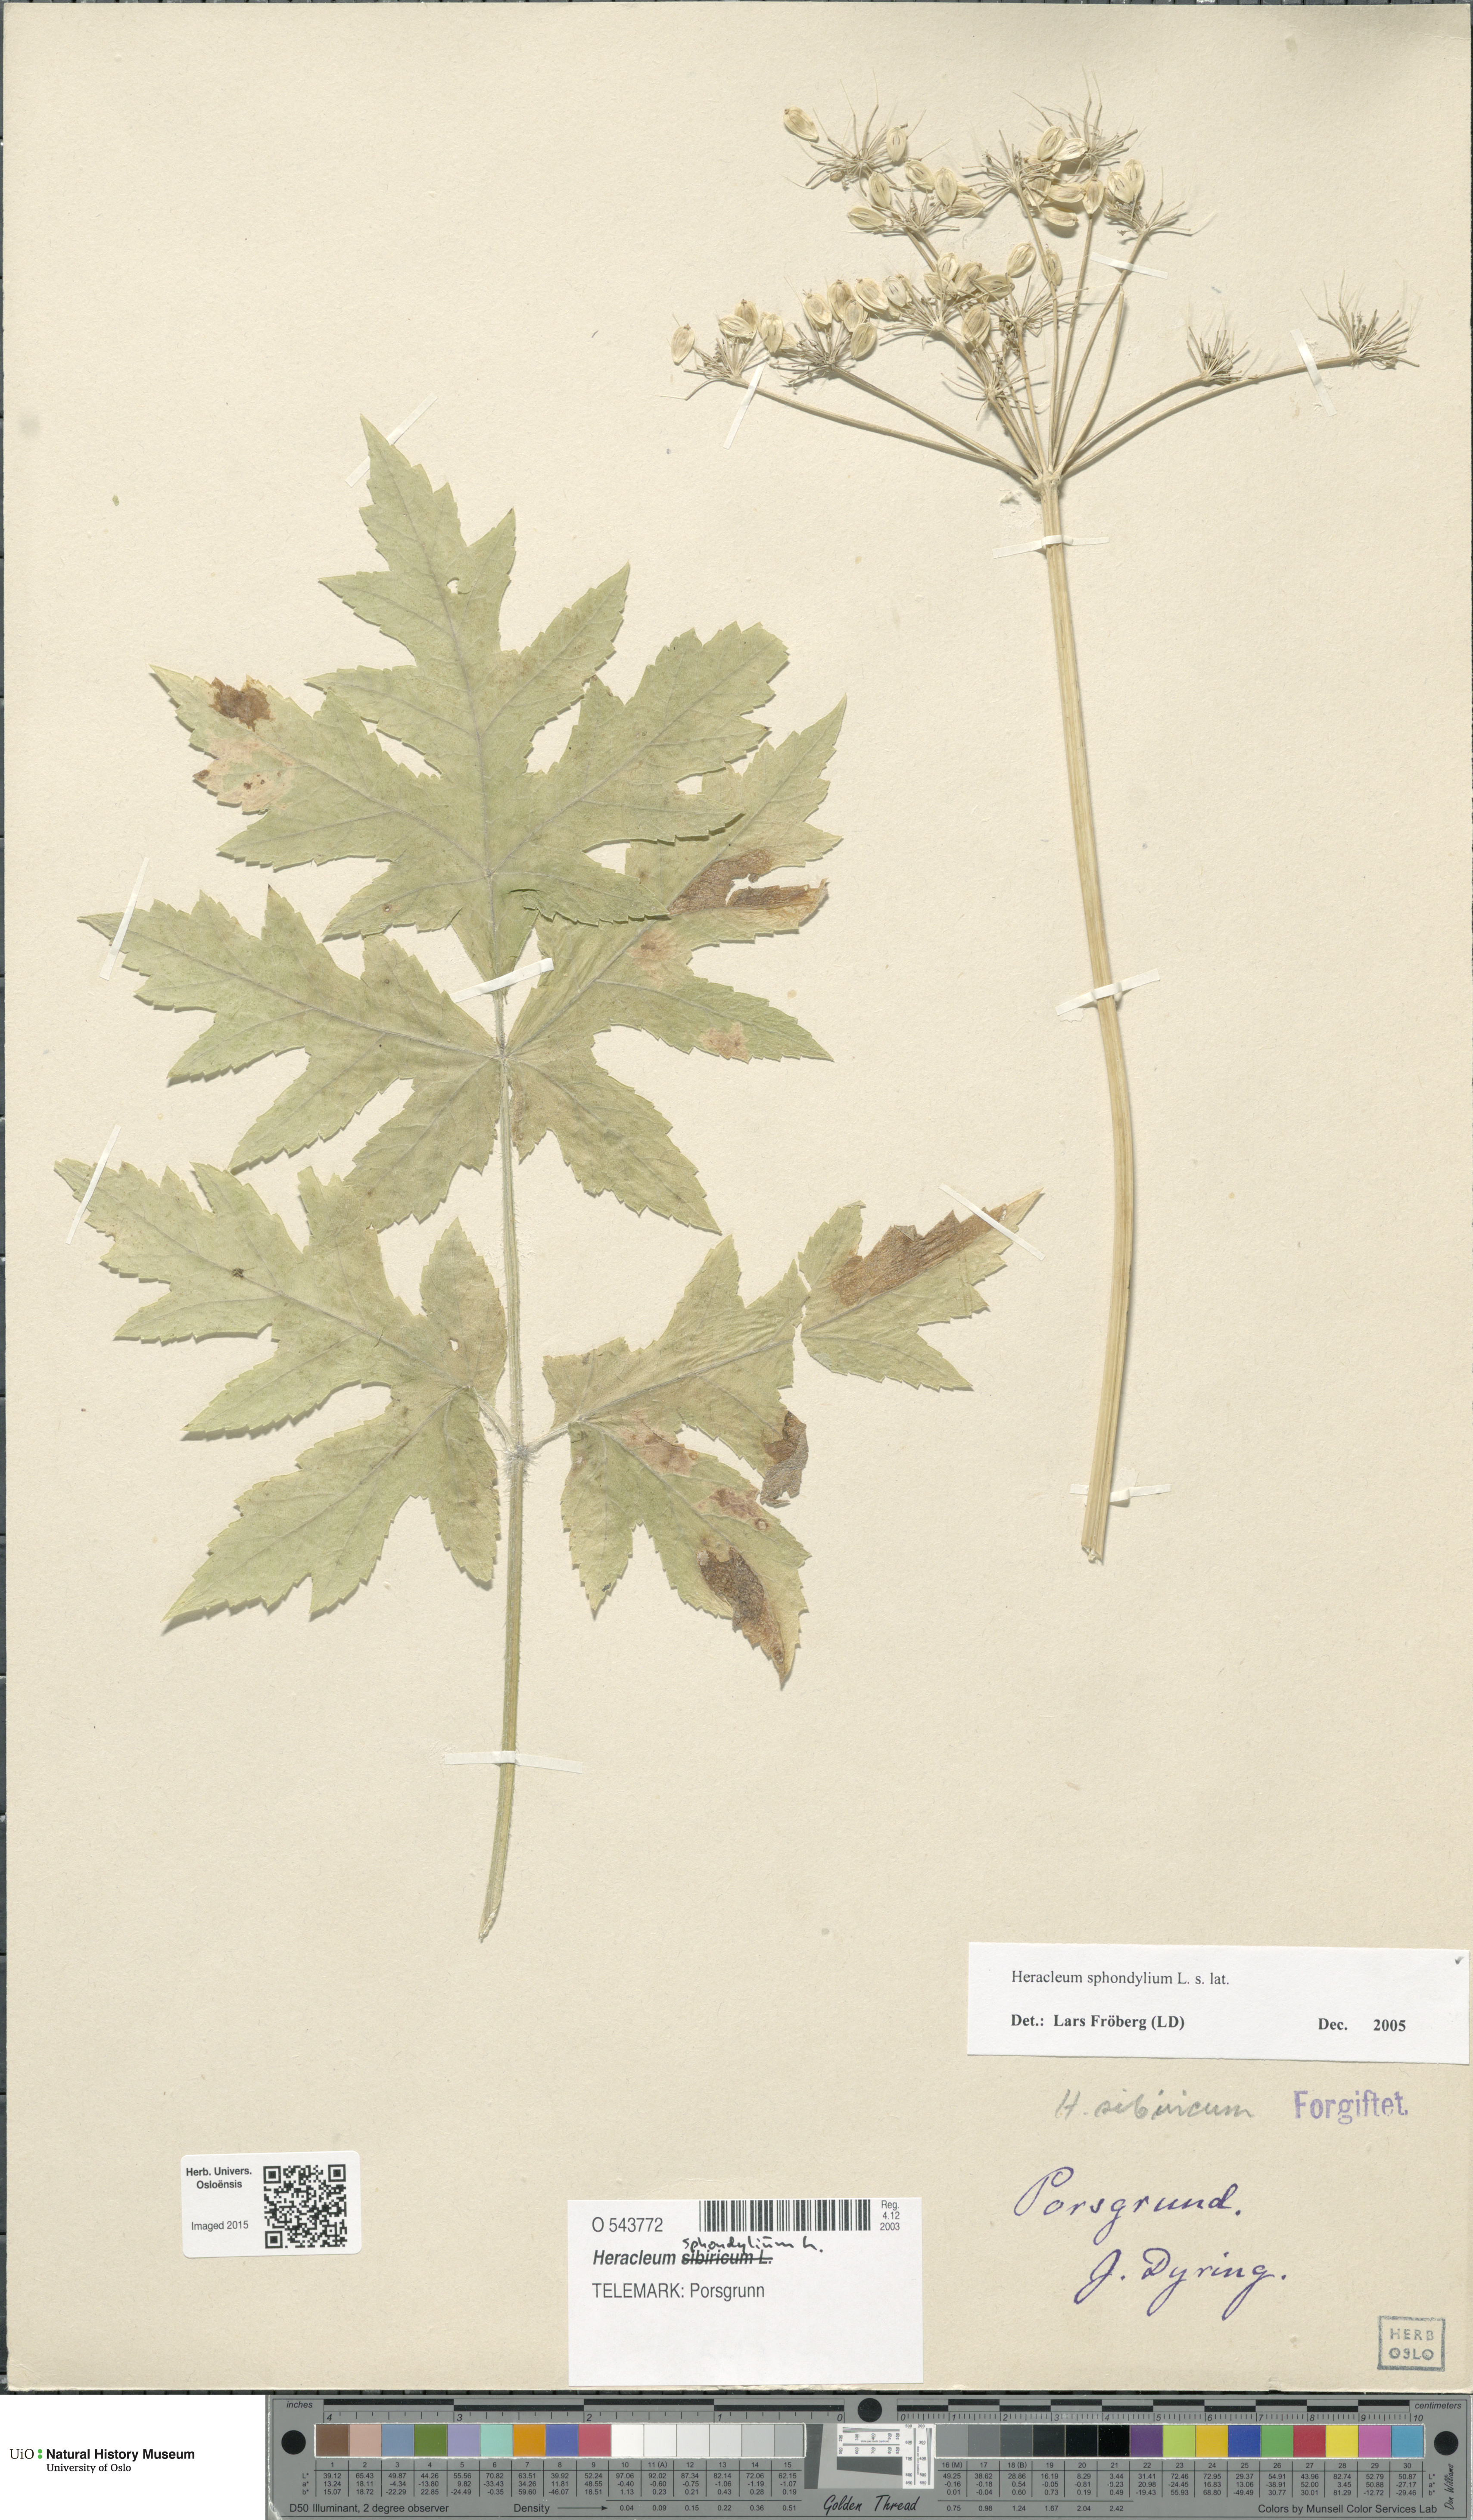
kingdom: Plantae
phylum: Tracheophyta
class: Magnoliopsida
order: Apiales
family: Apiaceae
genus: Heracleum
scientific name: Heracleum sphondylium
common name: Hogweed
